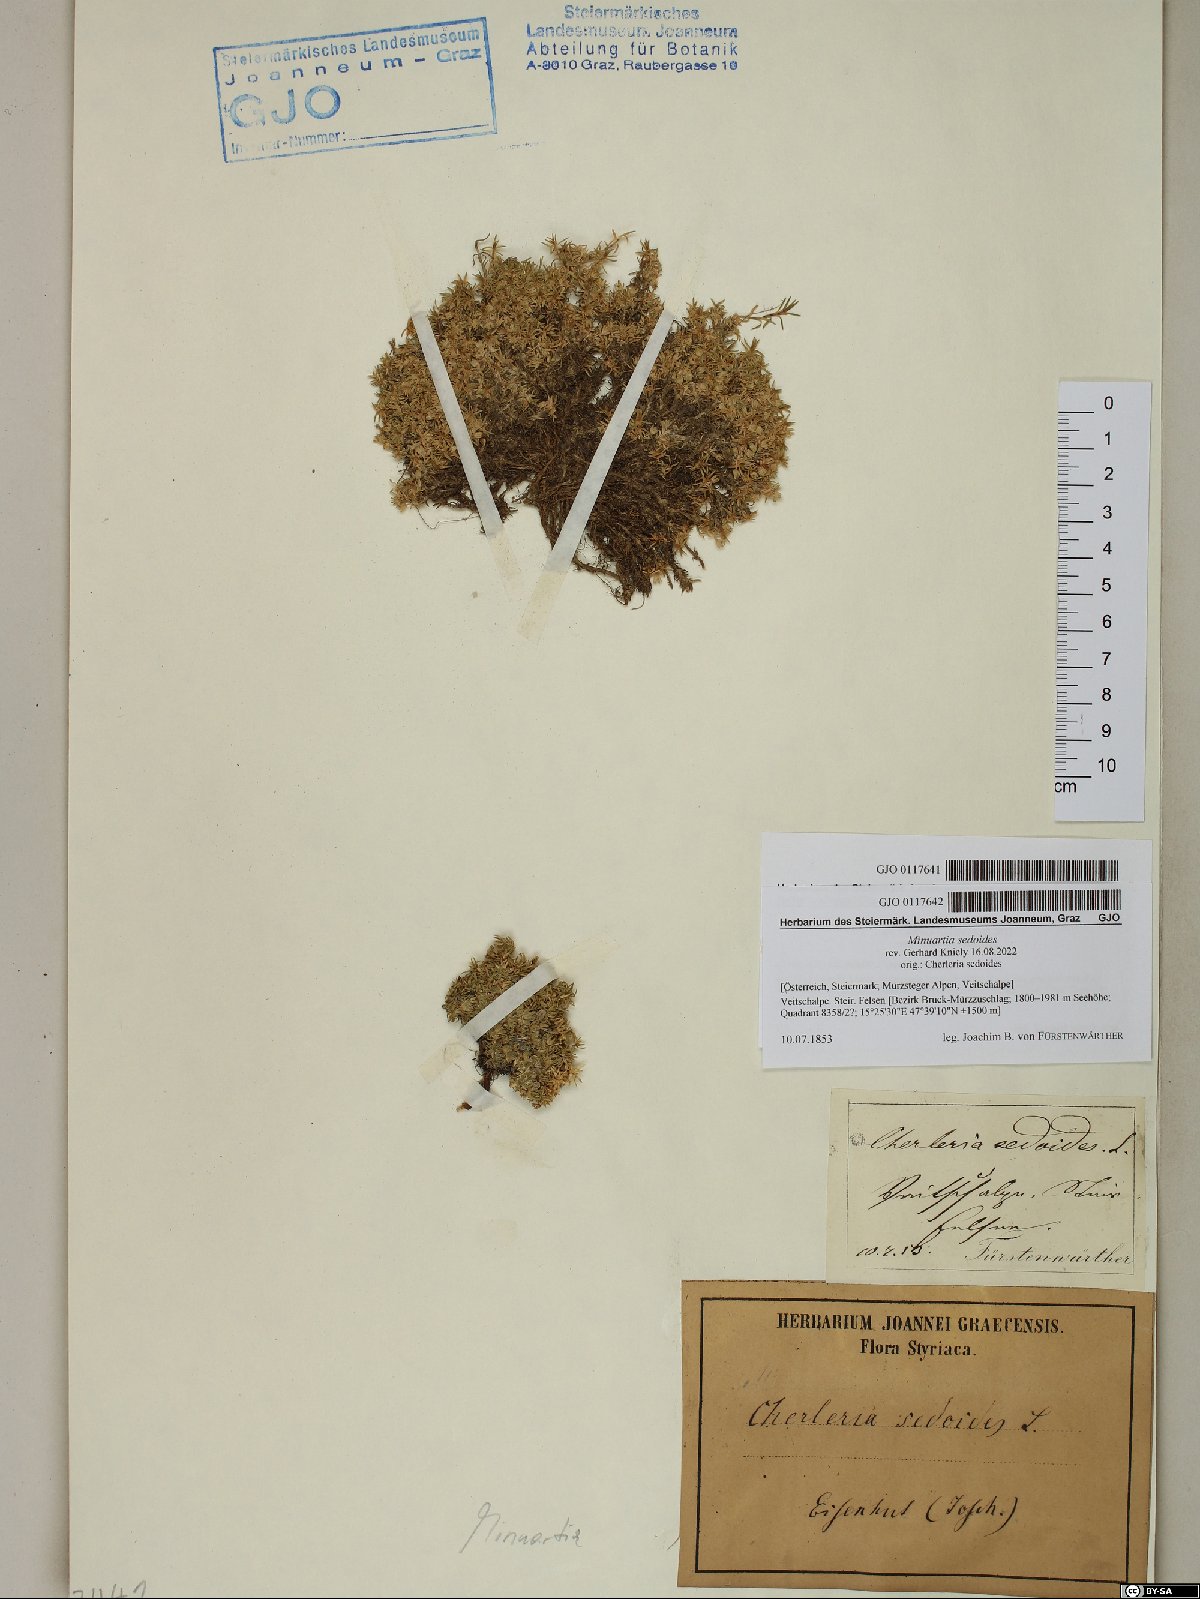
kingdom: Plantae
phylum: Tracheophyta
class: Magnoliopsida
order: Caryophyllales
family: Caryophyllaceae
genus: Cherleria
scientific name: Cherleria sedoides
